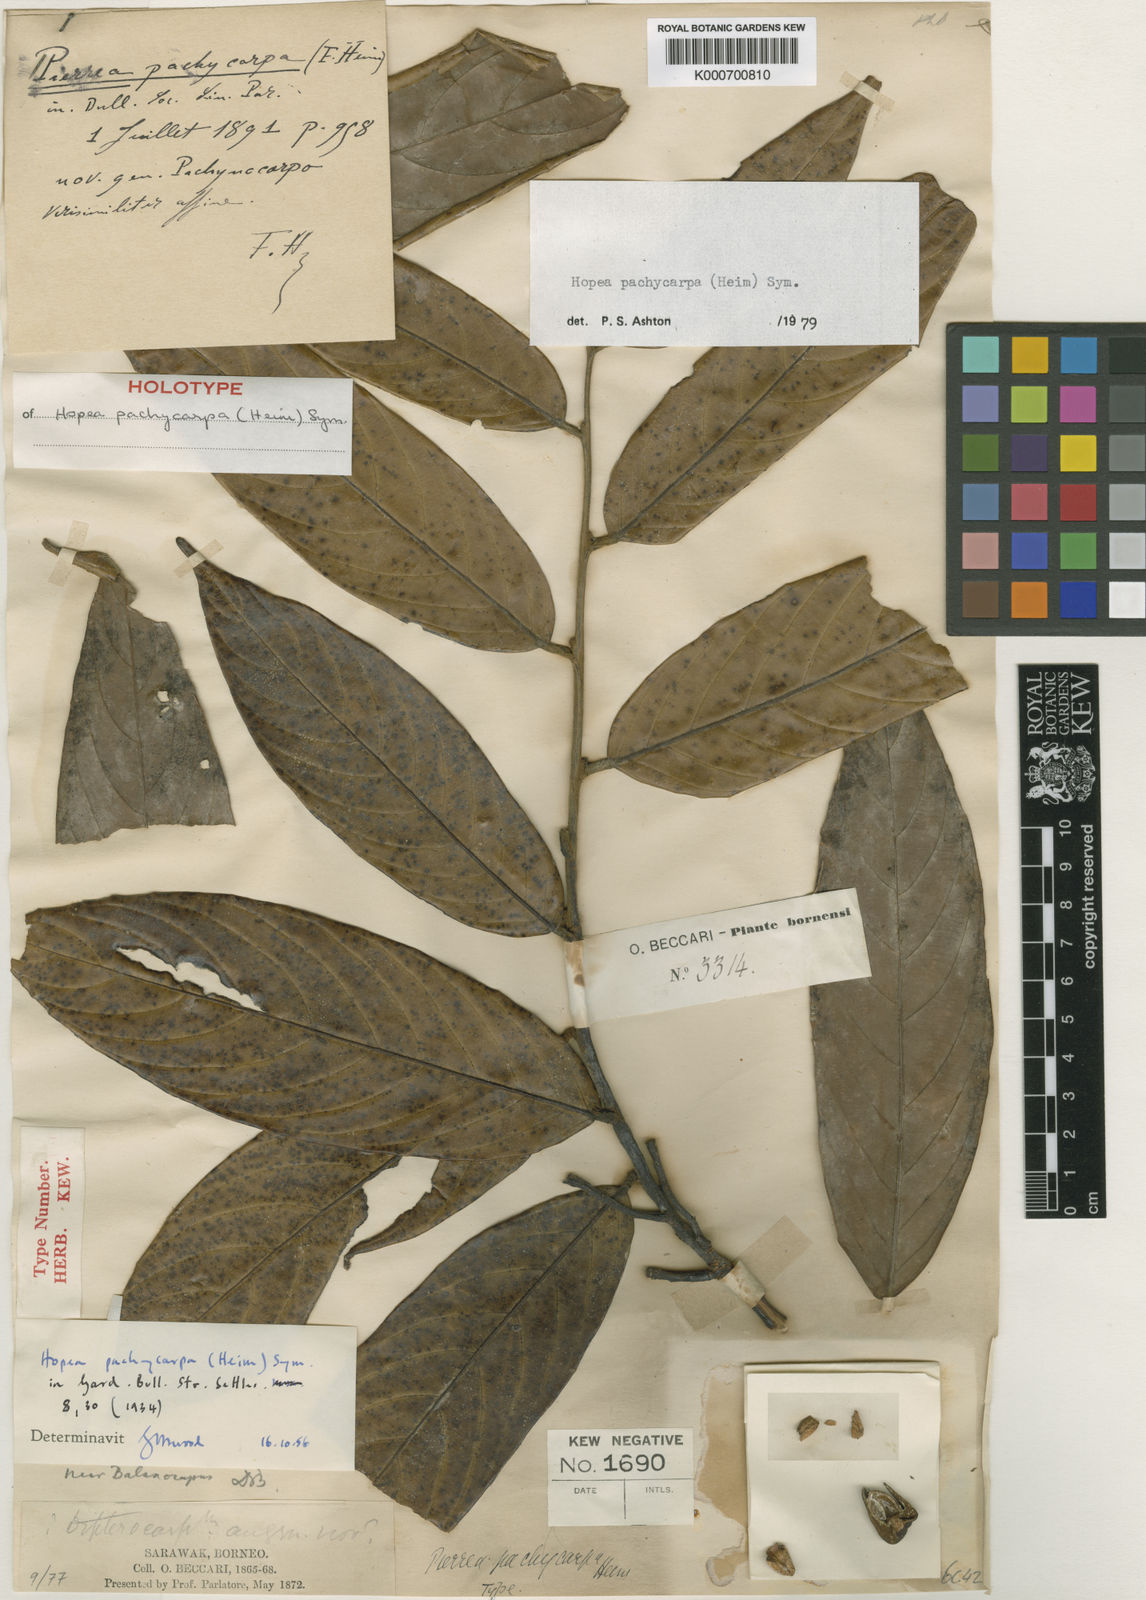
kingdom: Plantae
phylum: Tracheophyta
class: Magnoliopsida
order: Malvales
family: Dipterocarpaceae
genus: Hopea
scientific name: Hopea pachycarpa
